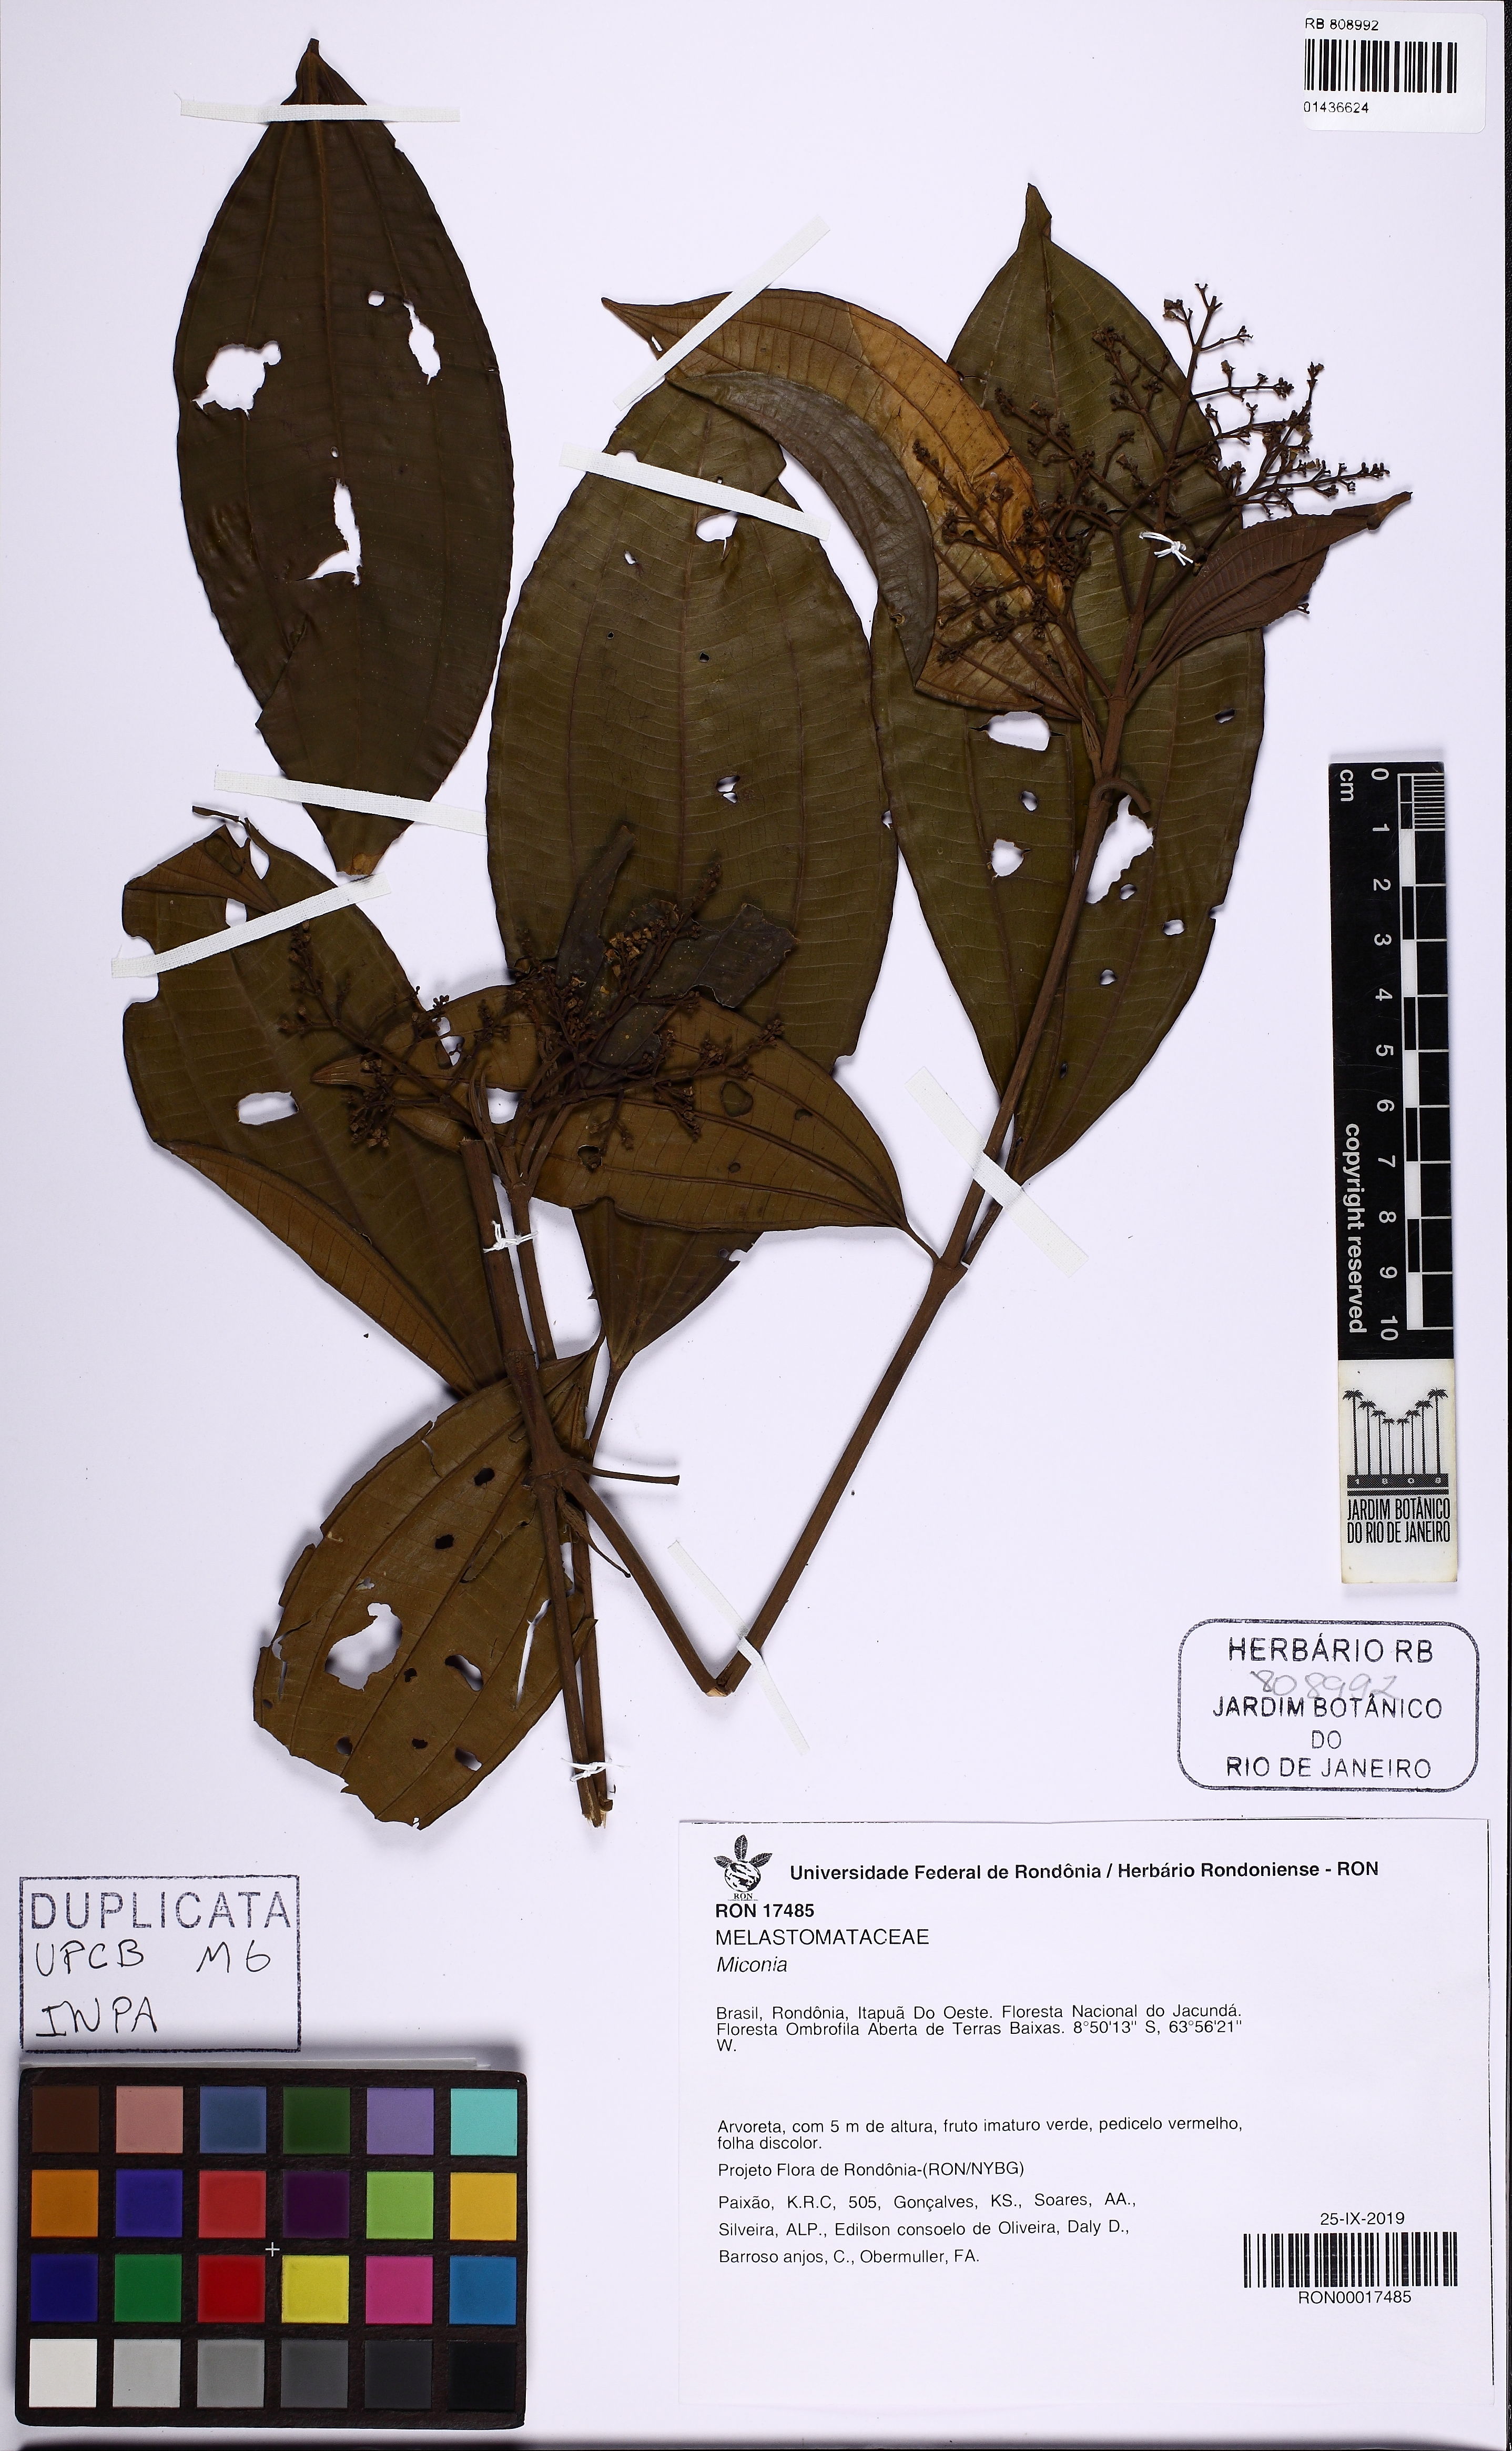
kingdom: Plantae
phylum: Tracheophyta
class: Magnoliopsida
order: Myrtales
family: Melastomataceae
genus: Miconia
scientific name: Miconia
